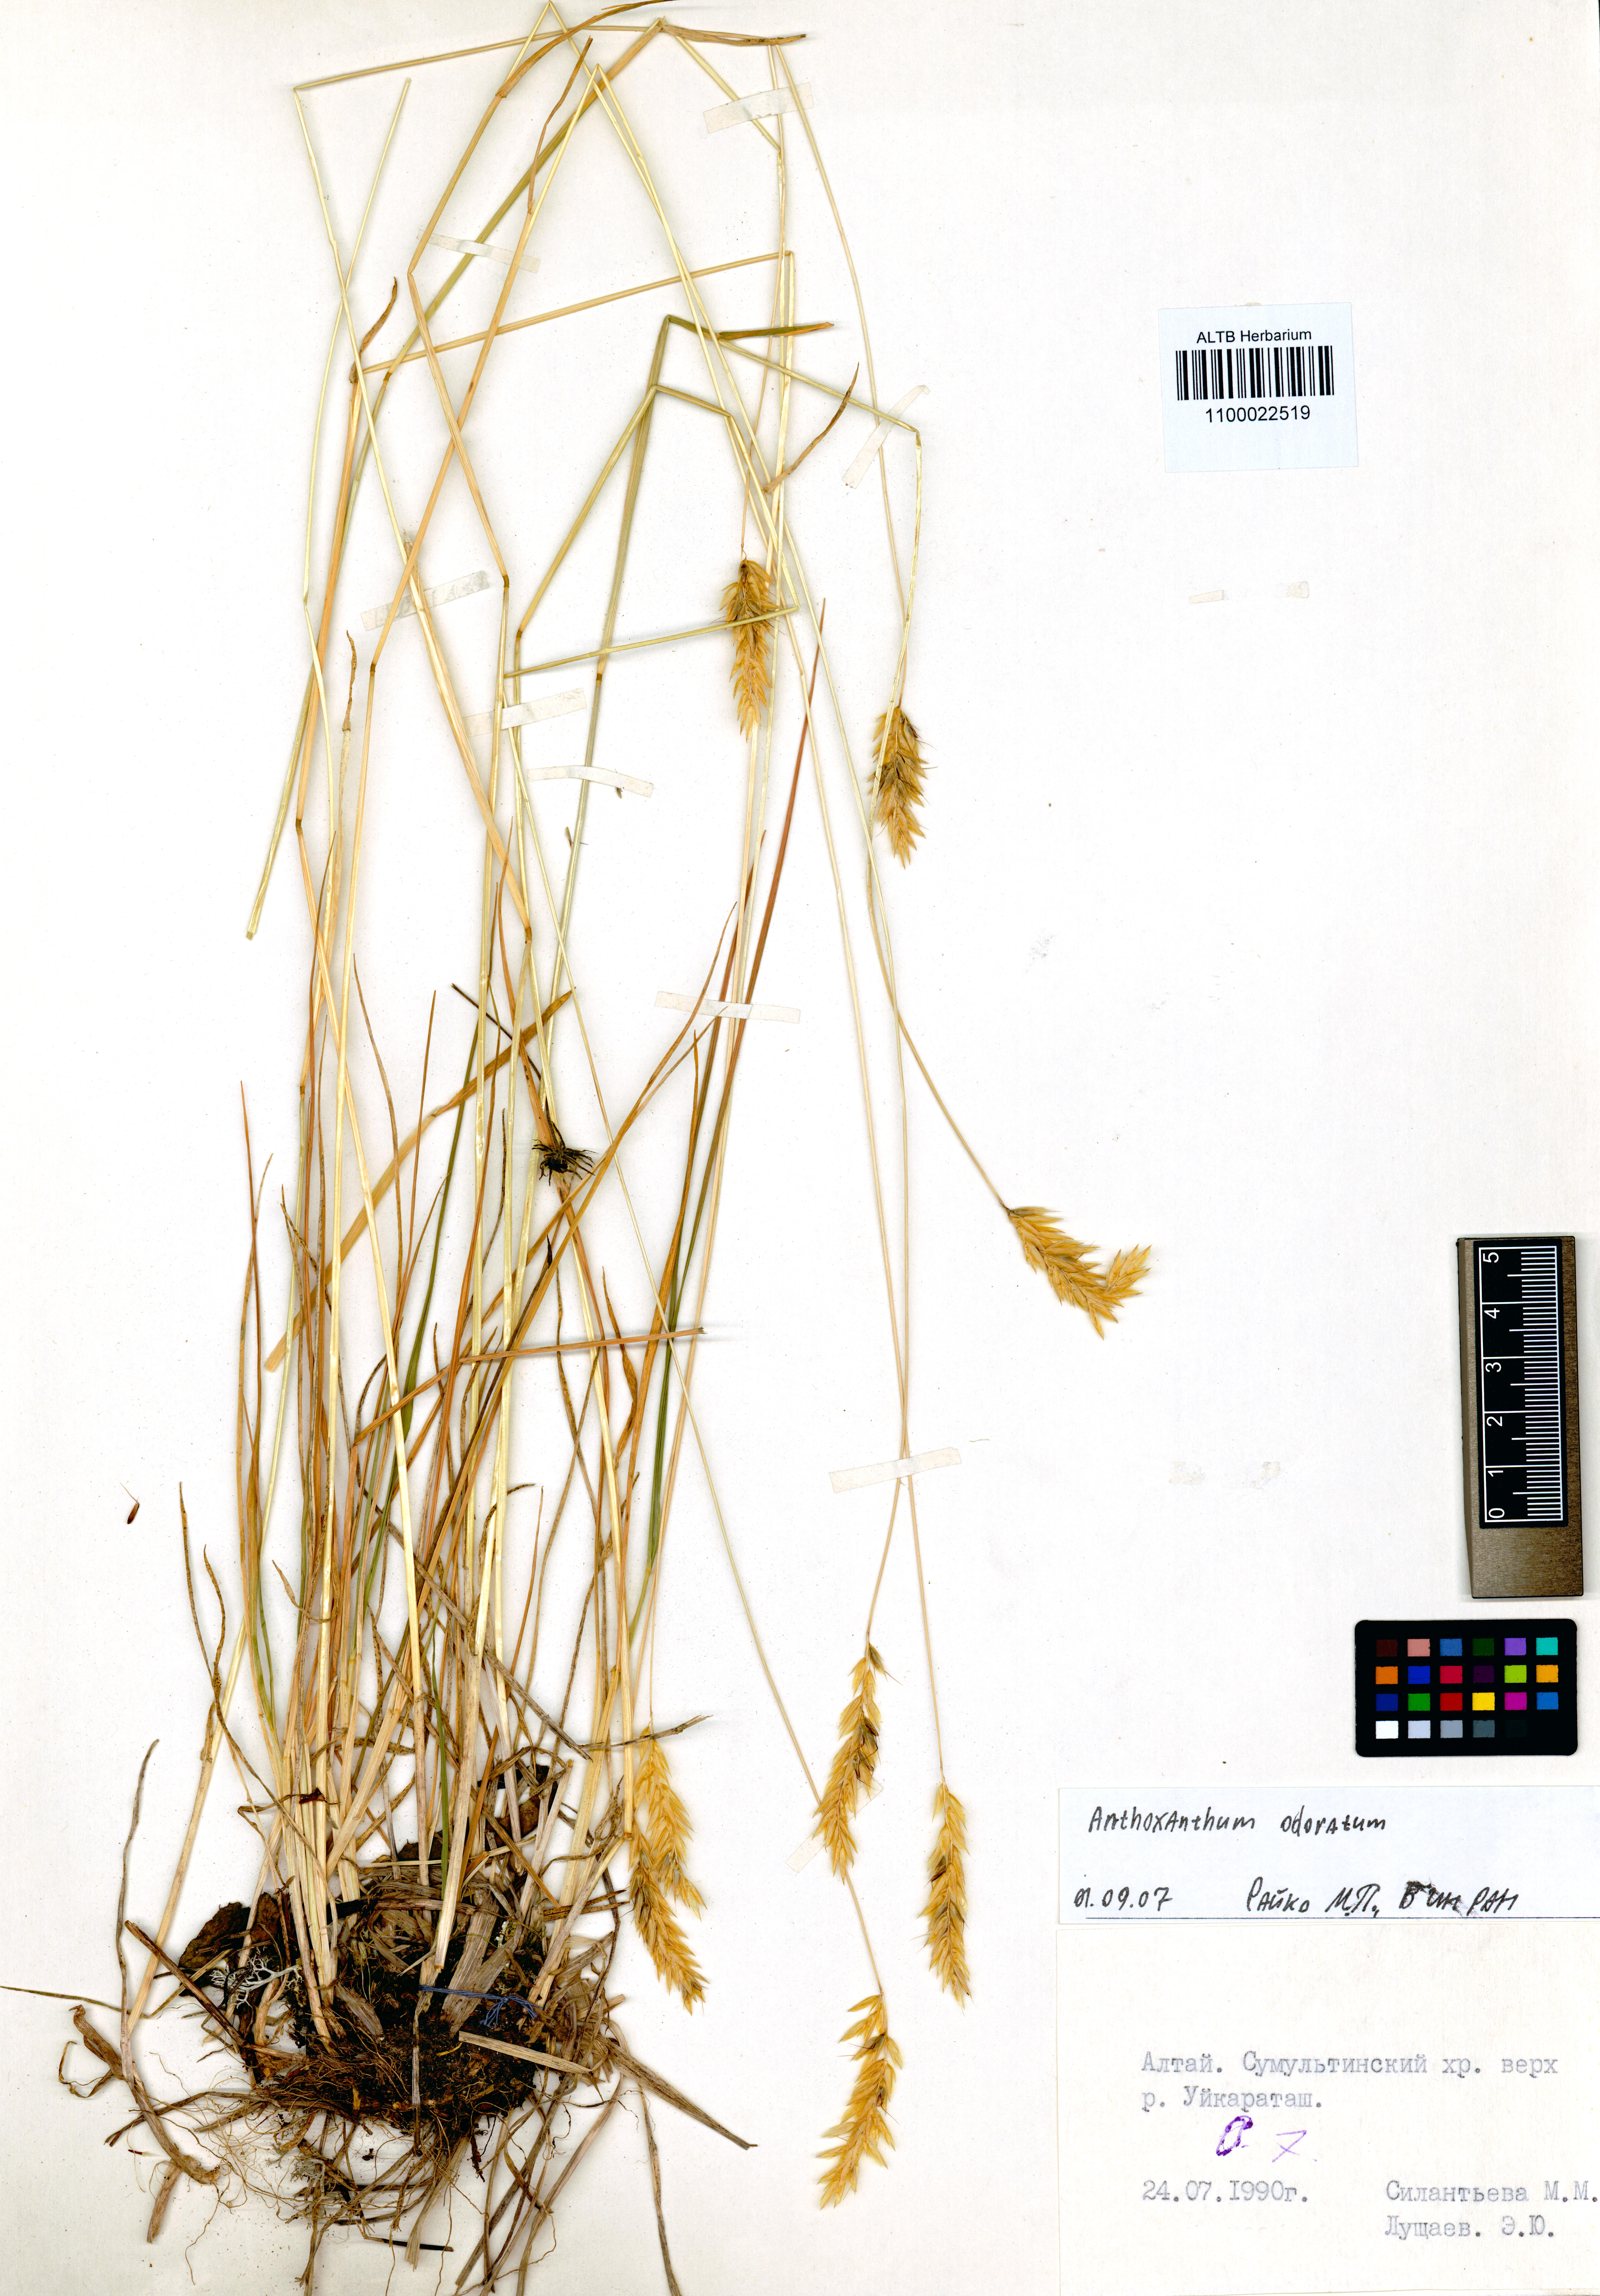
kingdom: Plantae
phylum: Tracheophyta
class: Liliopsida
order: Poales
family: Poaceae
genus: Anthoxanthum
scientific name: Anthoxanthum odoratum
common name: Sweet vernalgrass
